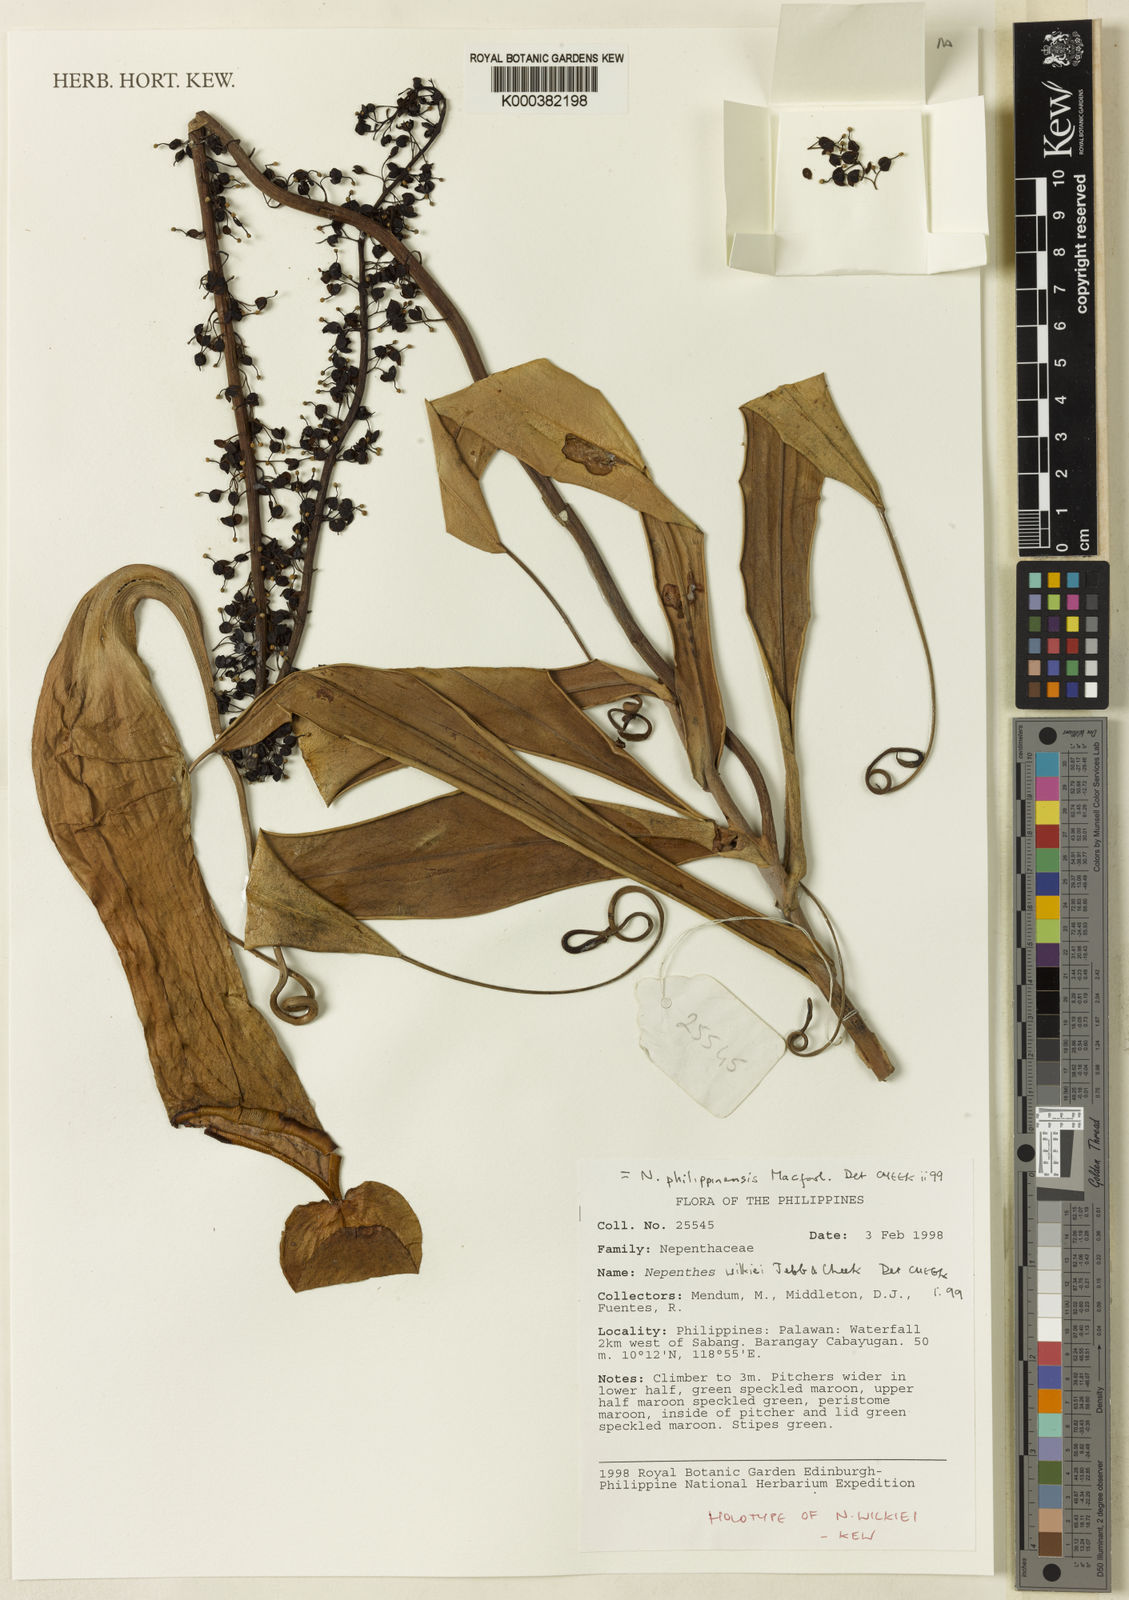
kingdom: Plantae
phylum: Tracheophyta
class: Magnoliopsida
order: Caryophyllales
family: Nepenthaceae
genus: Nepenthes
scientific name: Nepenthes philippinensis
